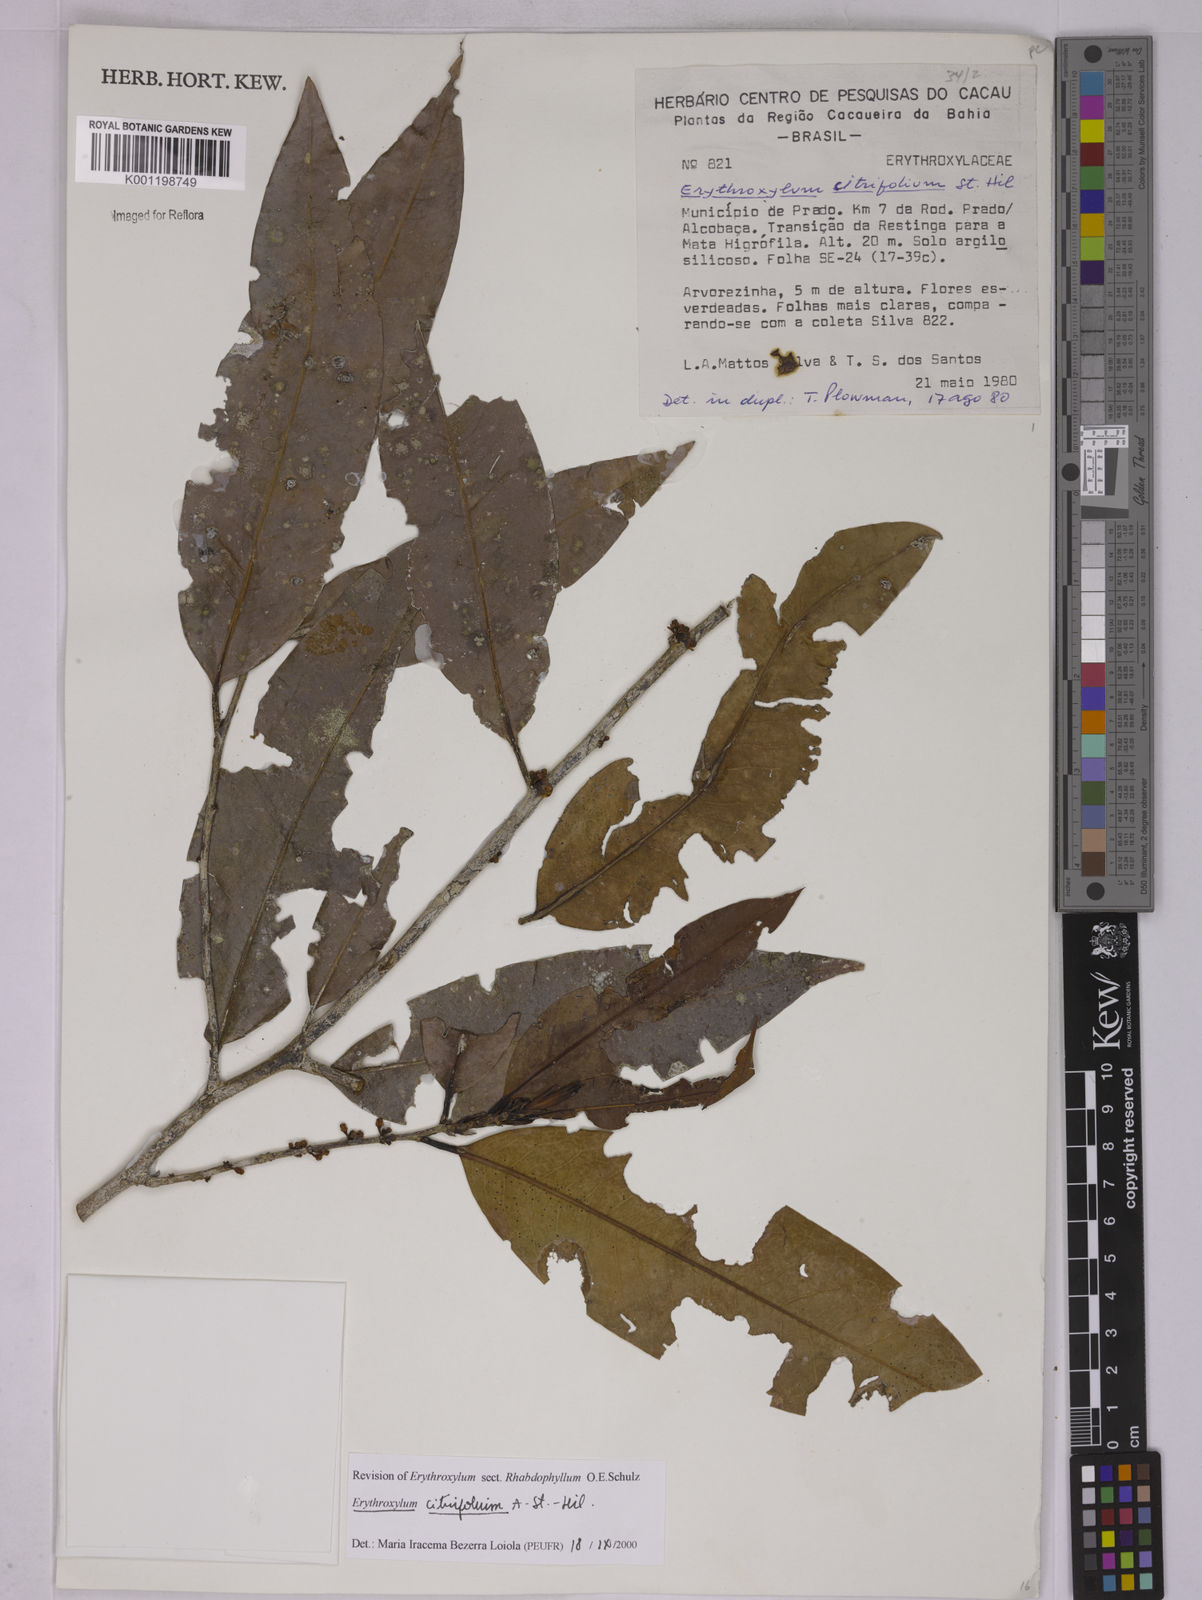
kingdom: Plantae
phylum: Tracheophyta
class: Magnoliopsida
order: Malpighiales
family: Erythroxylaceae
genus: Erythroxylum
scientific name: Erythroxylum citrifolium
